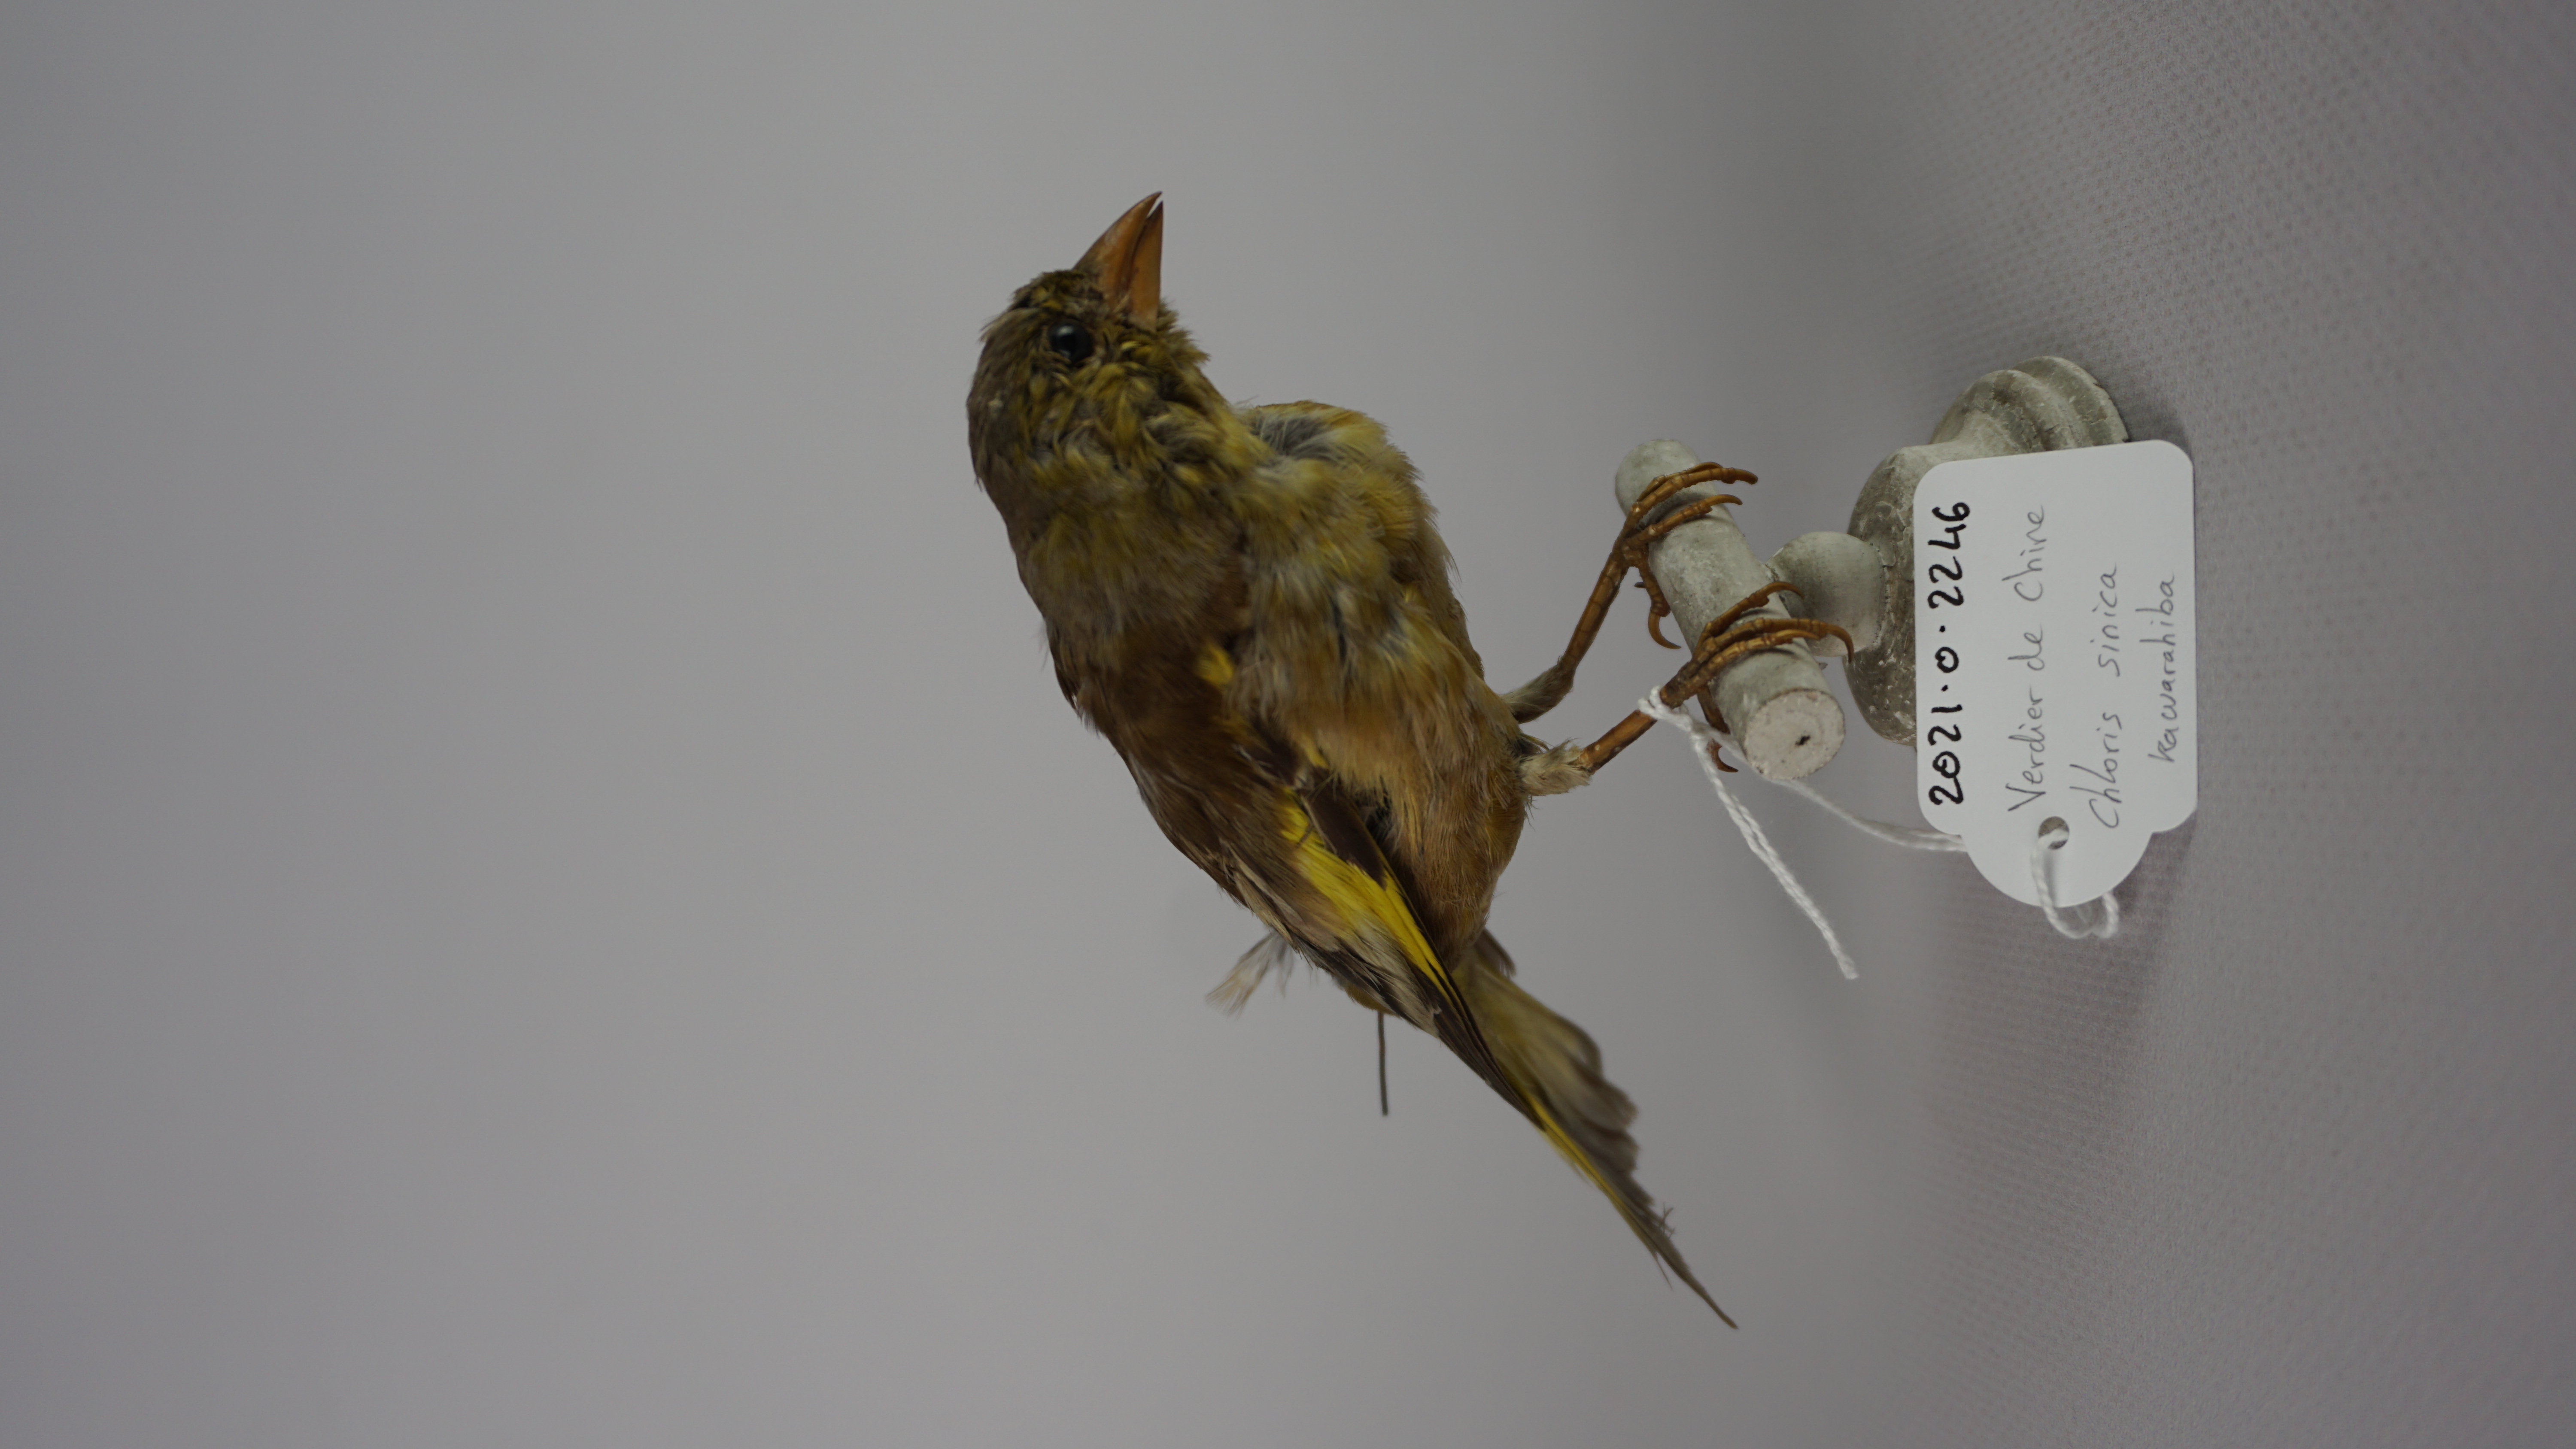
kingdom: Plantae
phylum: Tracheophyta
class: Liliopsida
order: Poales
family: Poaceae
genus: Chloris
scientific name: Chloris sinica
